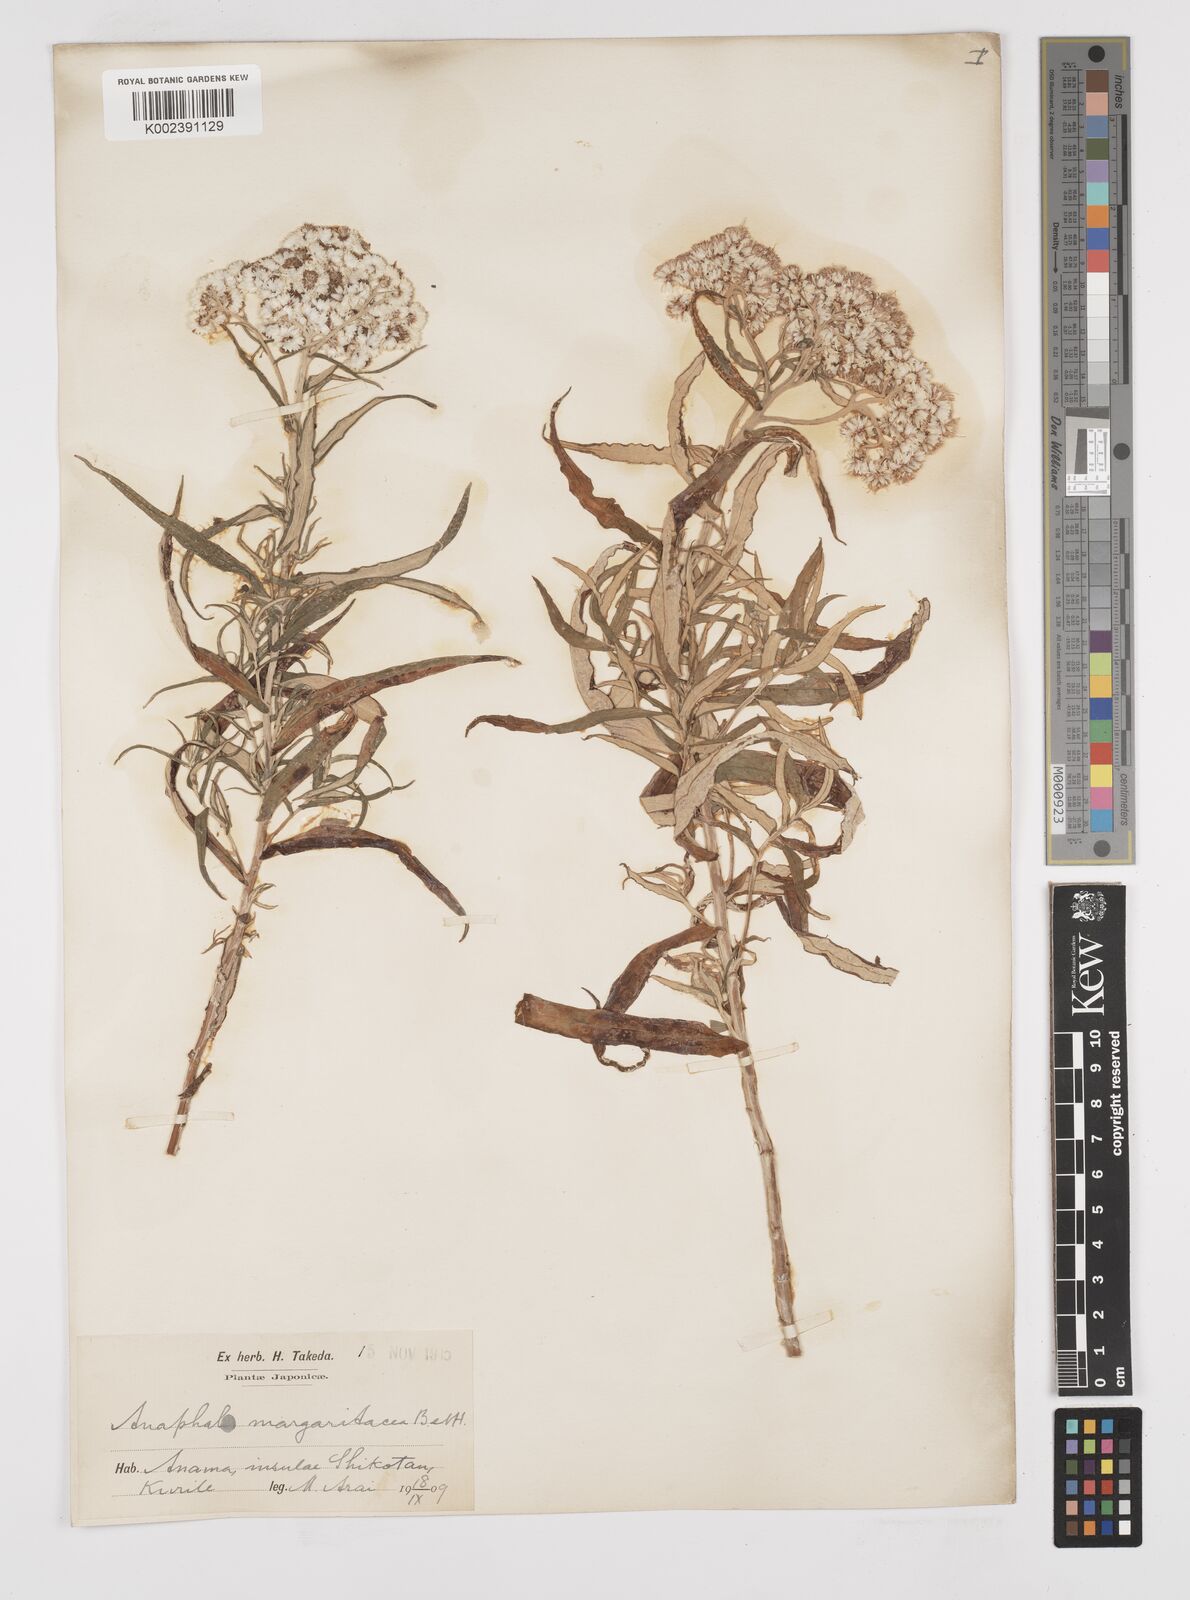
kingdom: Plantae
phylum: Tracheophyta
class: Magnoliopsida
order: Asterales
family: Asteraceae
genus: Anaphalis
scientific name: Anaphalis margaritacea
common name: Pearly everlasting
